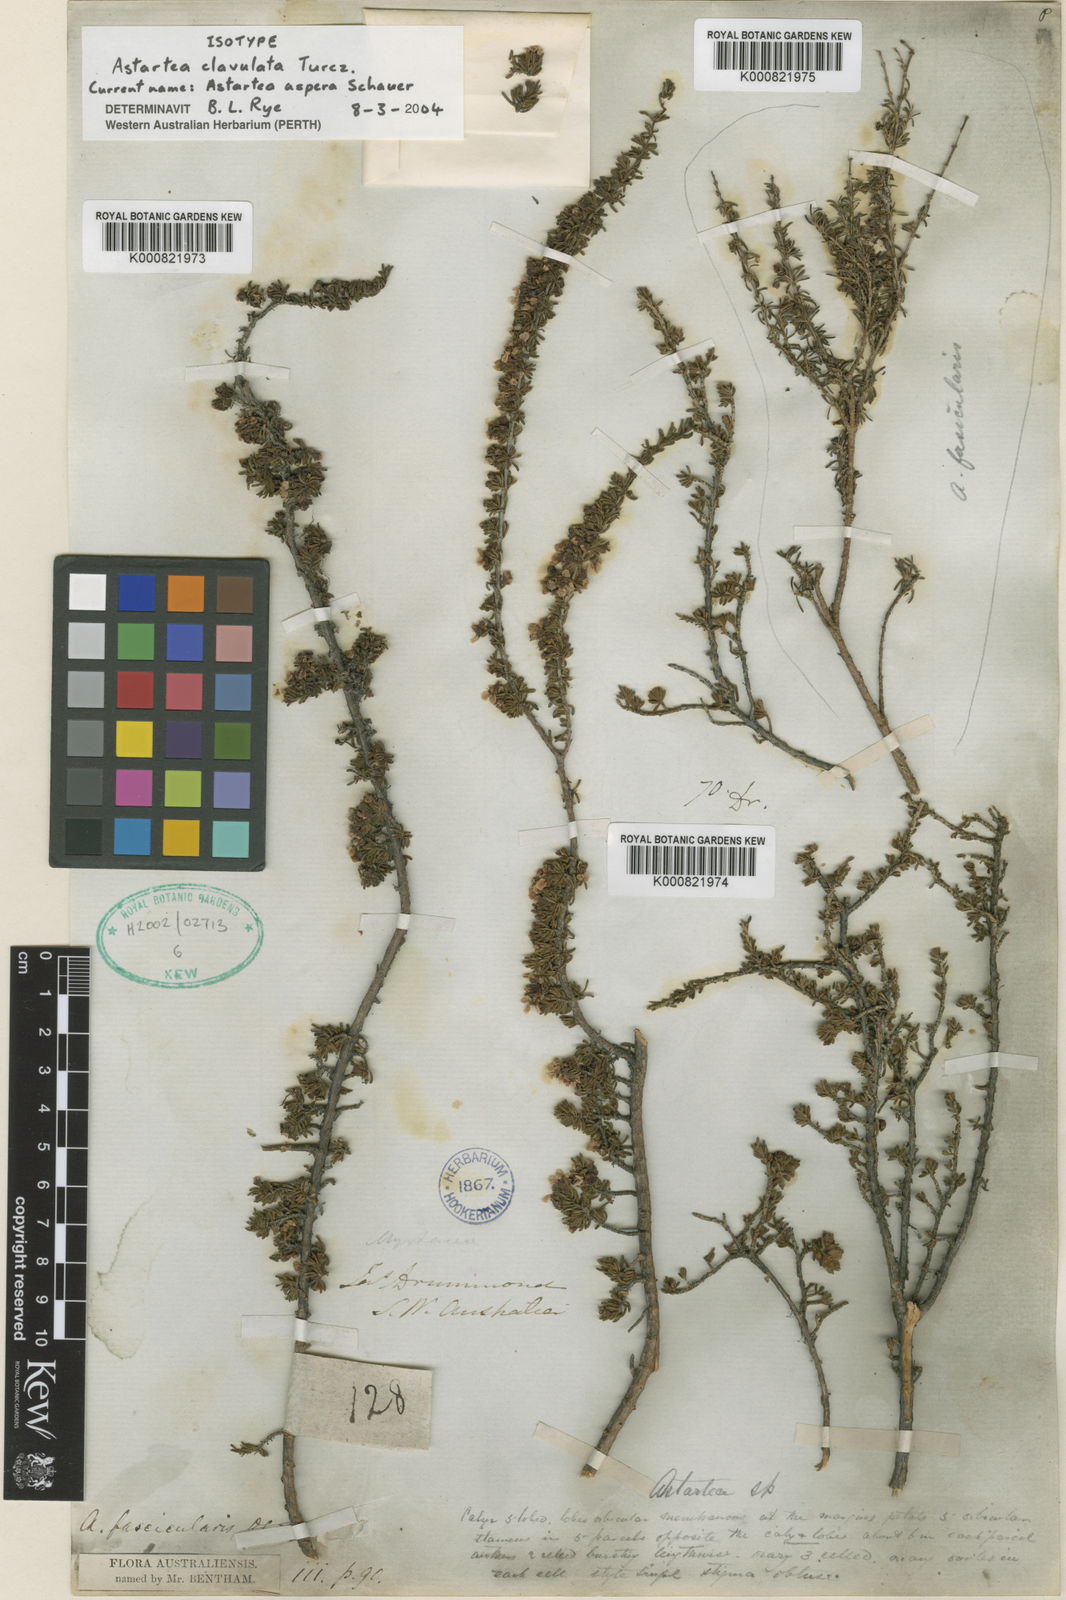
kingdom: Plantae
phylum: Tracheophyta
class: Magnoliopsida
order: Myrtales
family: Myrtaceae
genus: Astartea
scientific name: Astartea aspera
